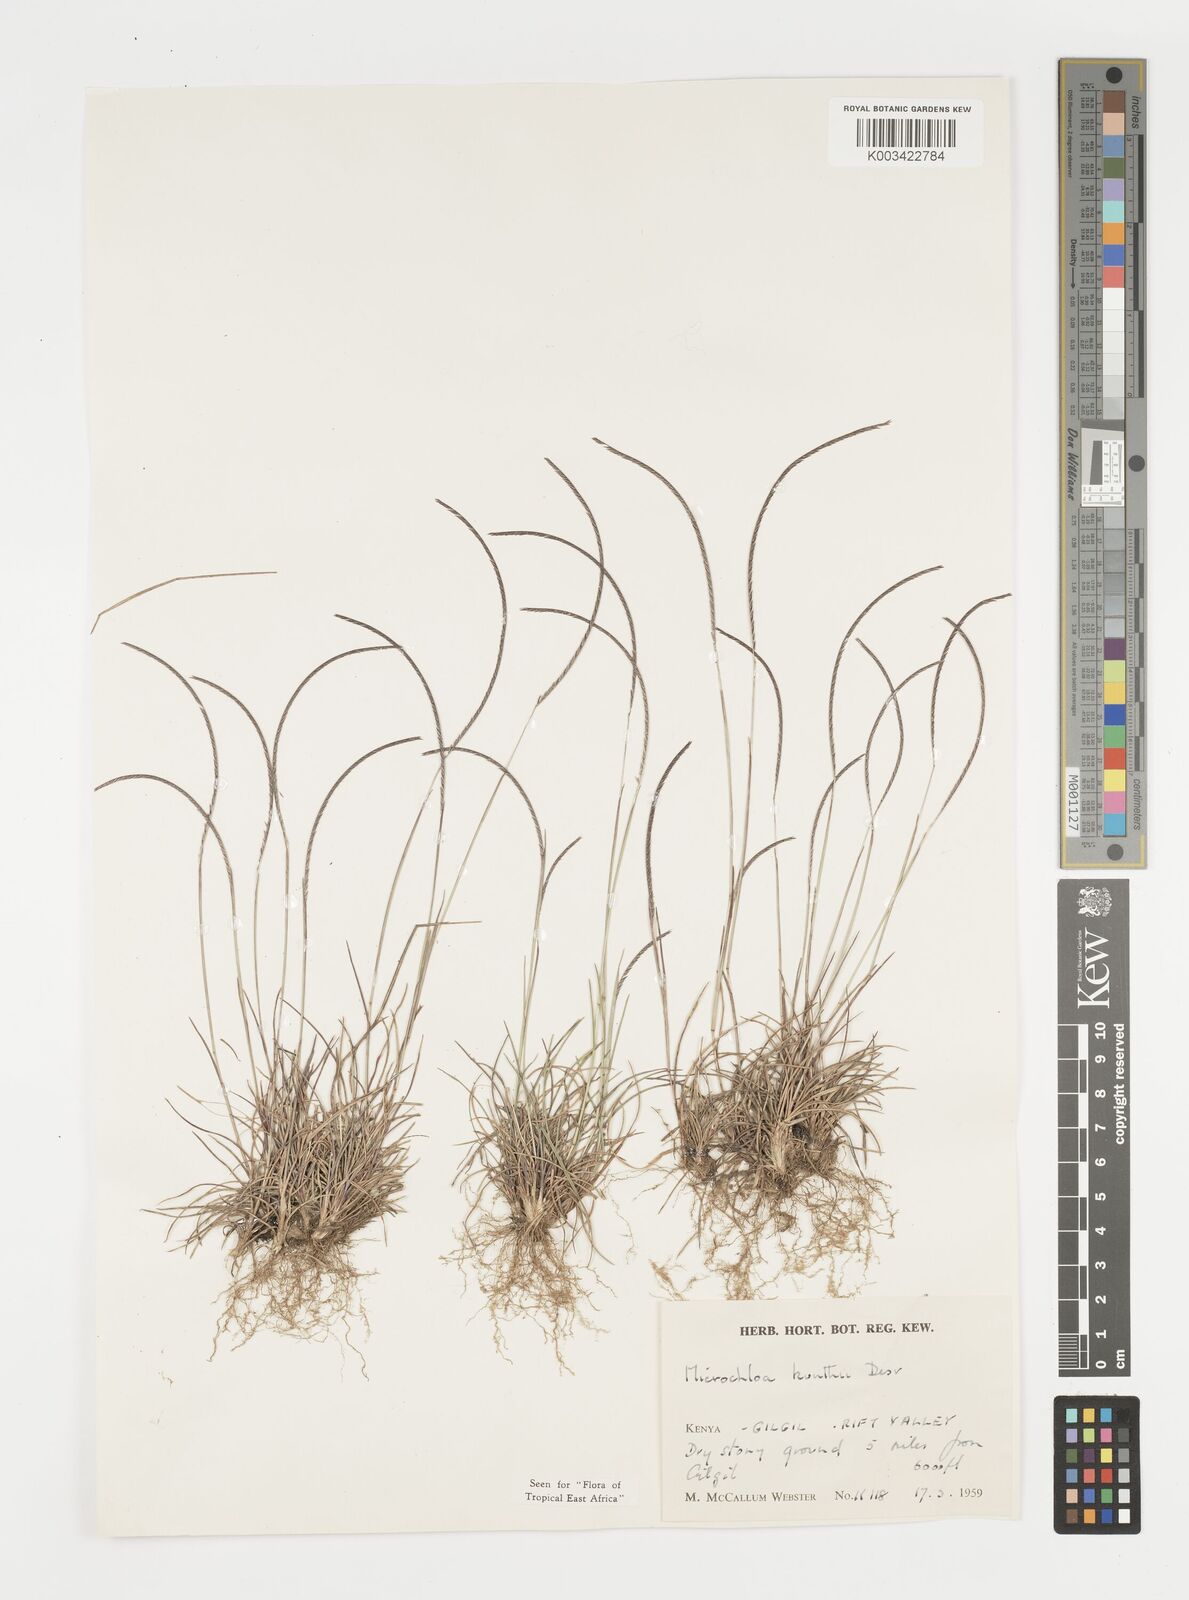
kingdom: Plantae
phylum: Tracheophyta
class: Liliopsida
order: Poales
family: Poaceae
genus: Microchloa
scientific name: Microchloa kunthii
